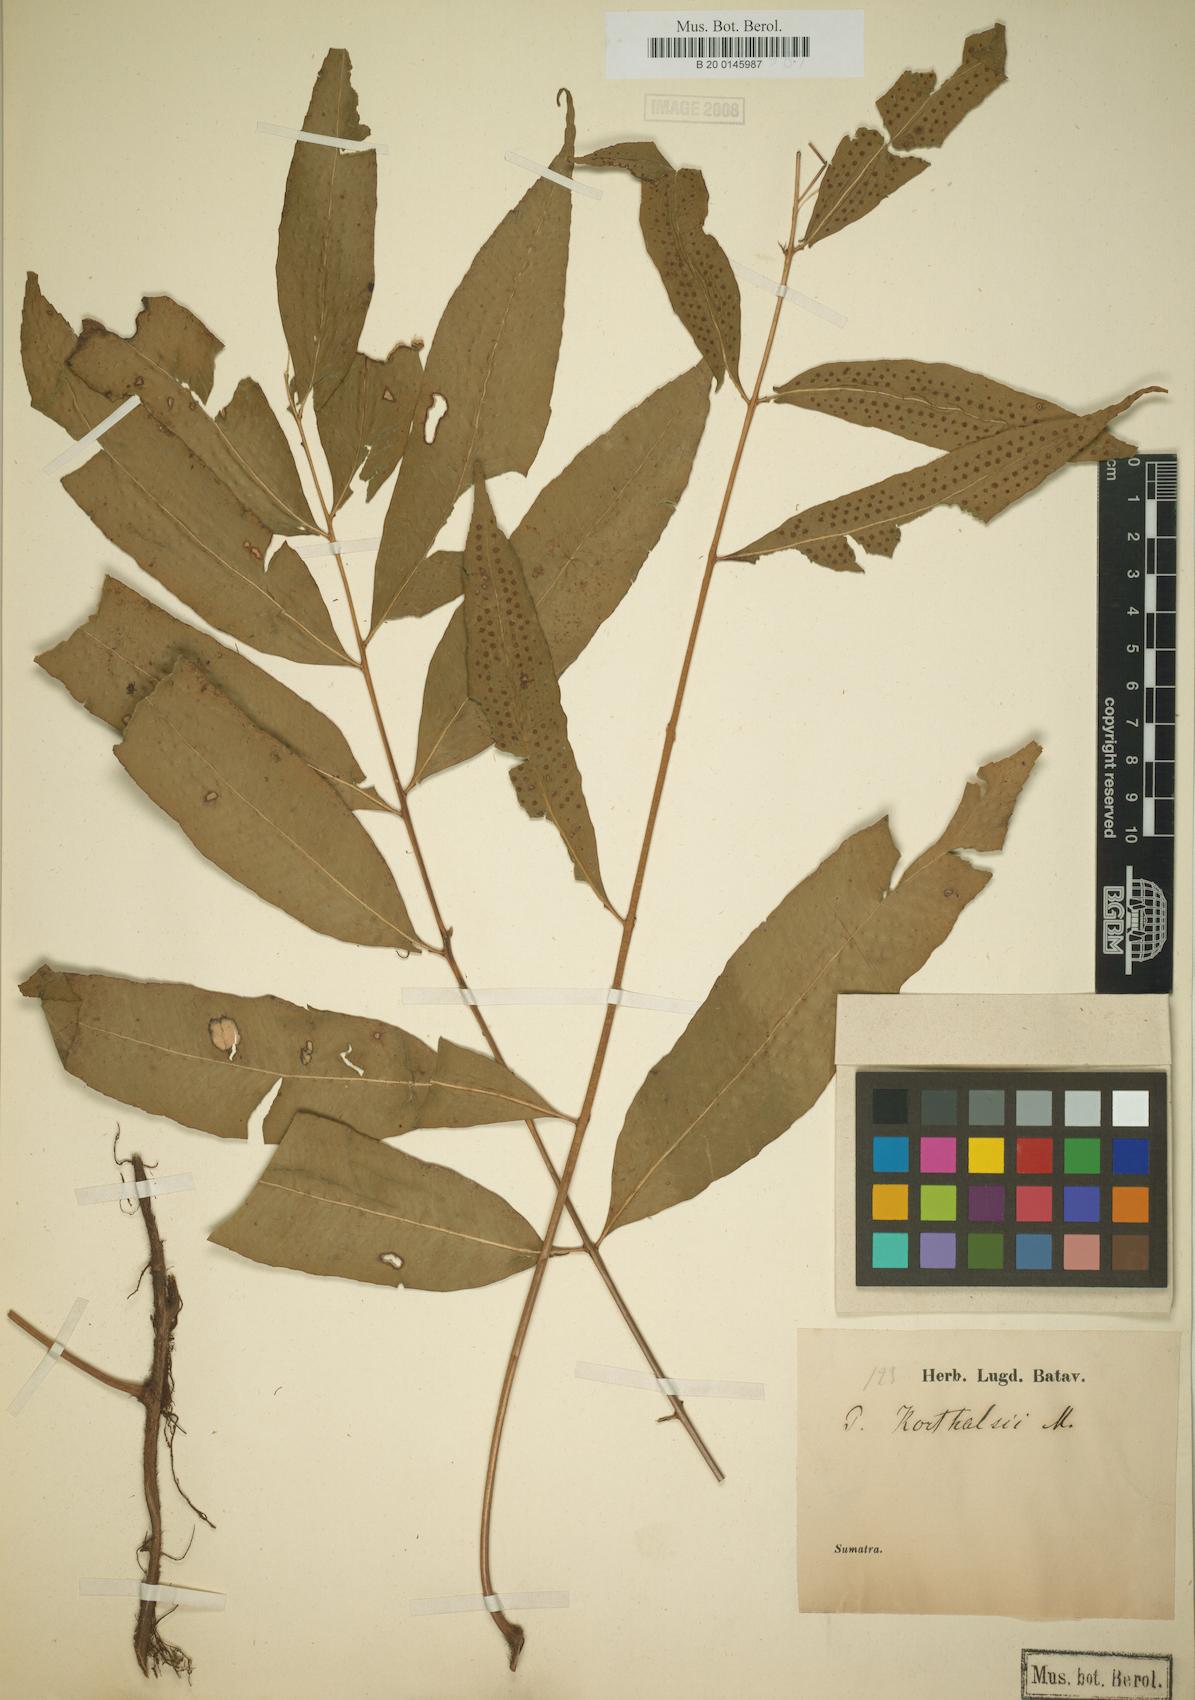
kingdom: Plantae
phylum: Tracheophyta
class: Polypodiopsida
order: Polypodiales
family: Polypodiaceae
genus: Goniophlebium
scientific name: Goniophlebium korthalsii
